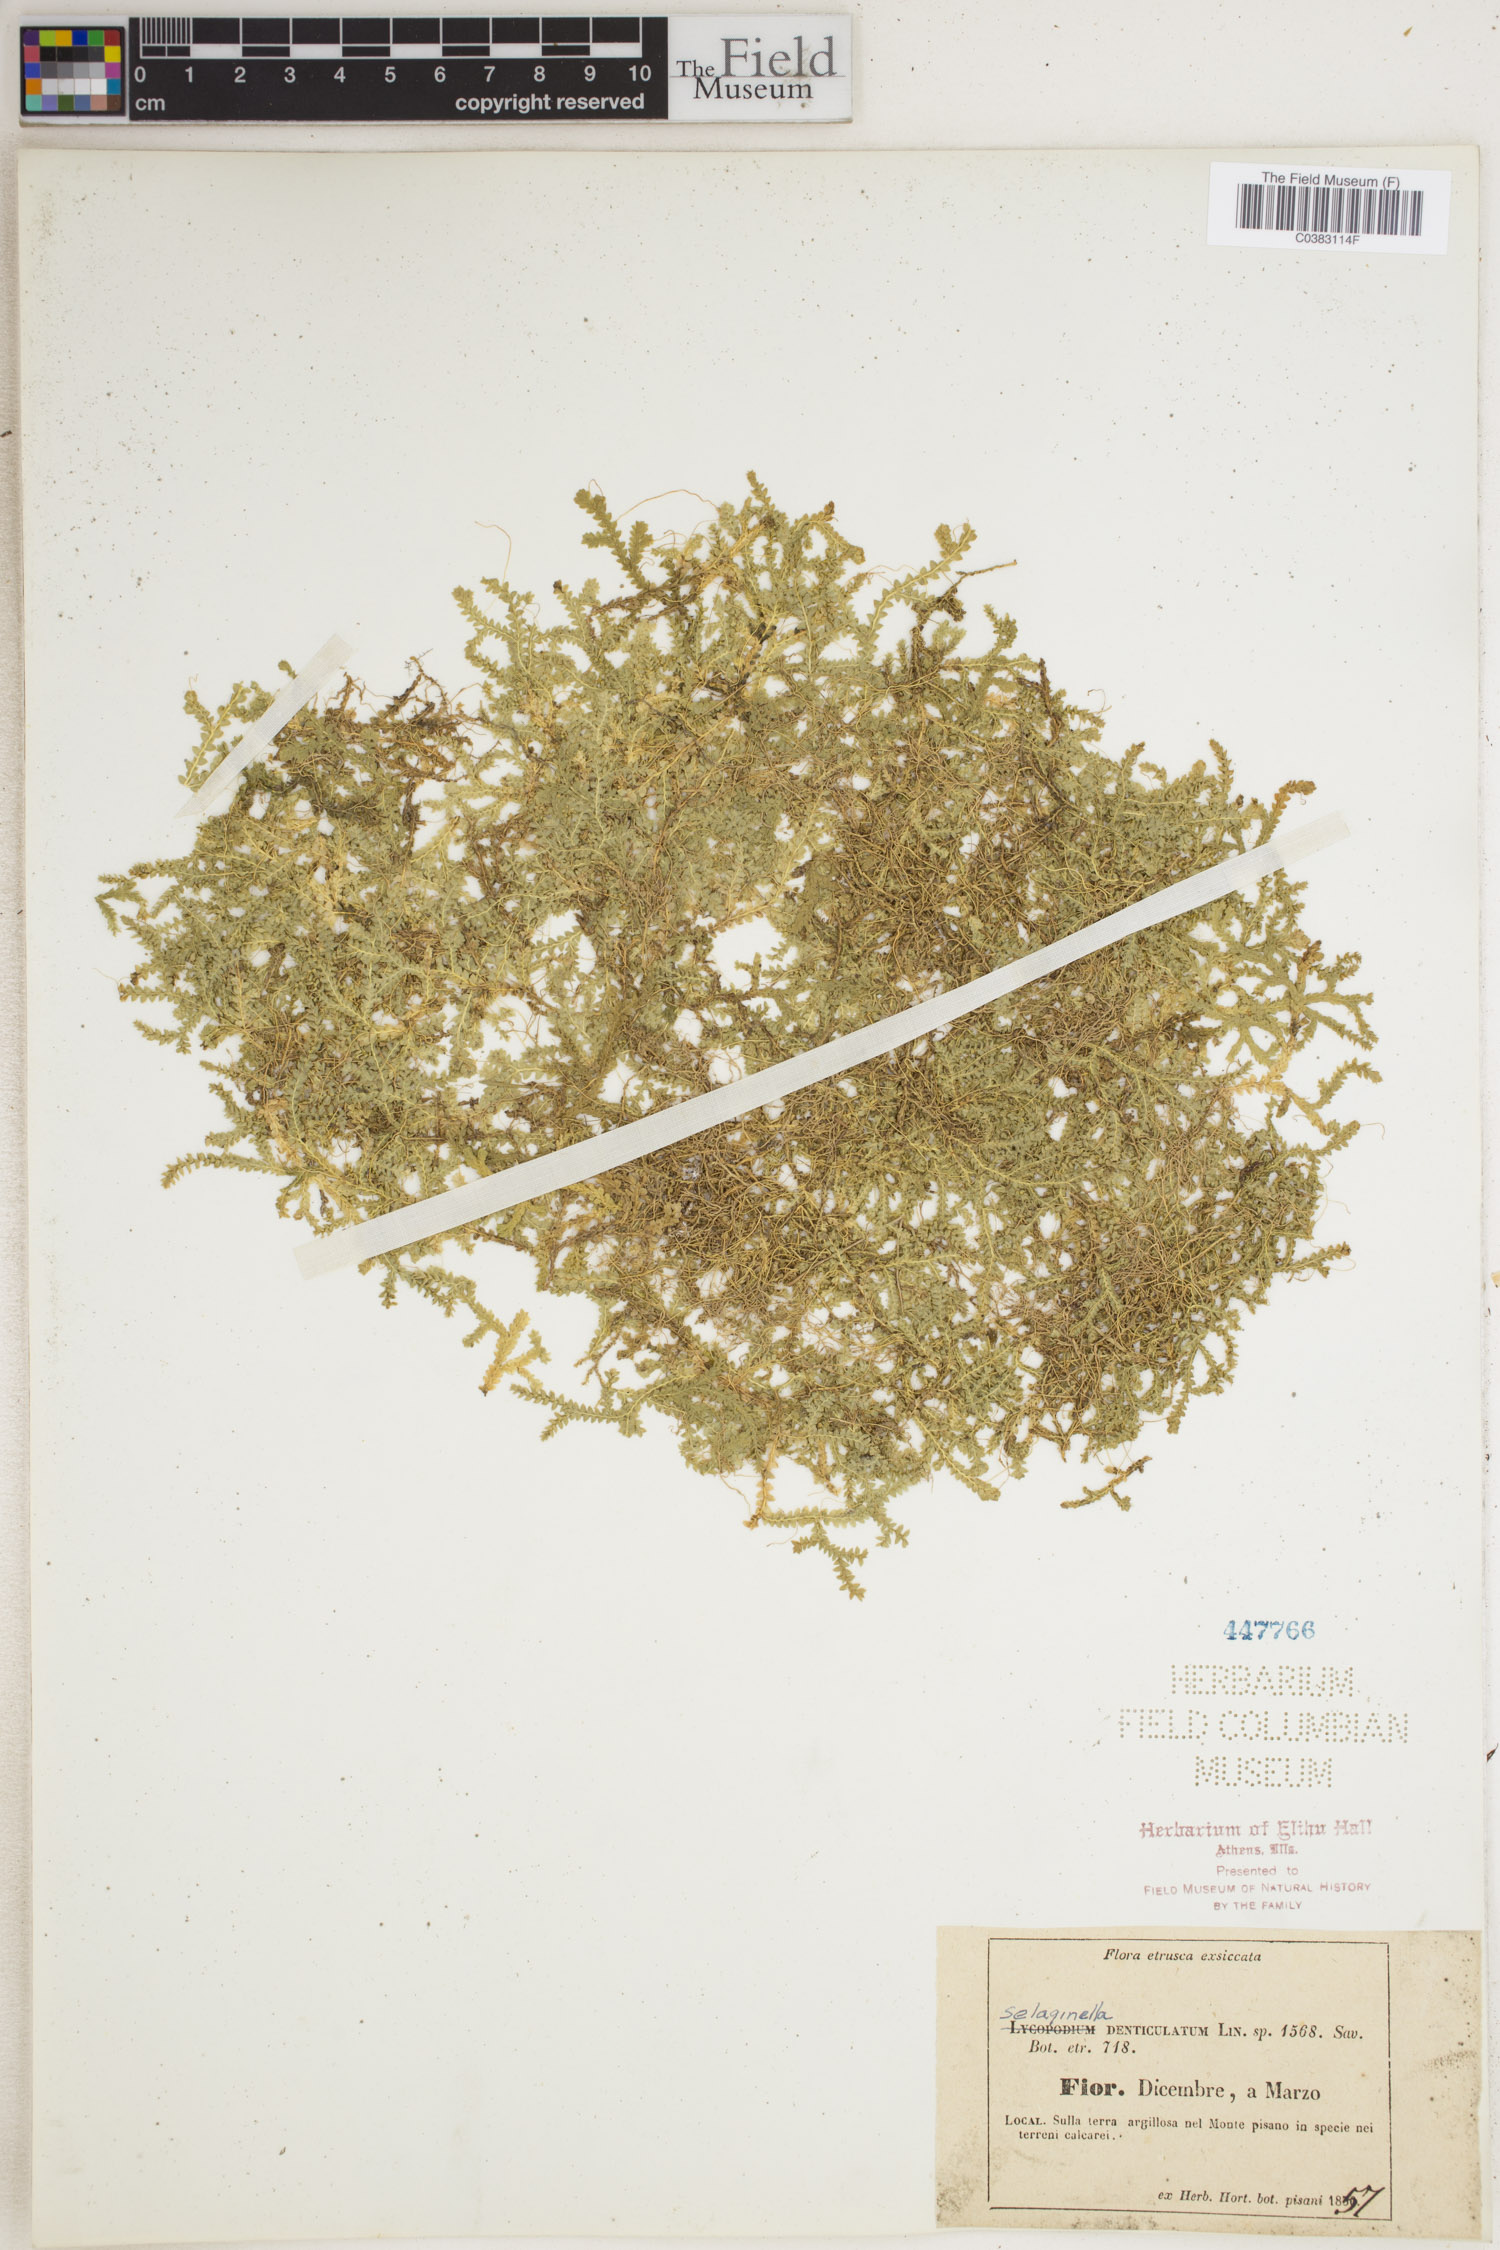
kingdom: Plantae
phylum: Tracheophyta
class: Lycopodiopsida
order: Selaginellales
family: Selaginellaceae
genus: Selaginella
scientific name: Selaginella denticulata
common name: Toothed-leaved clubmoss
